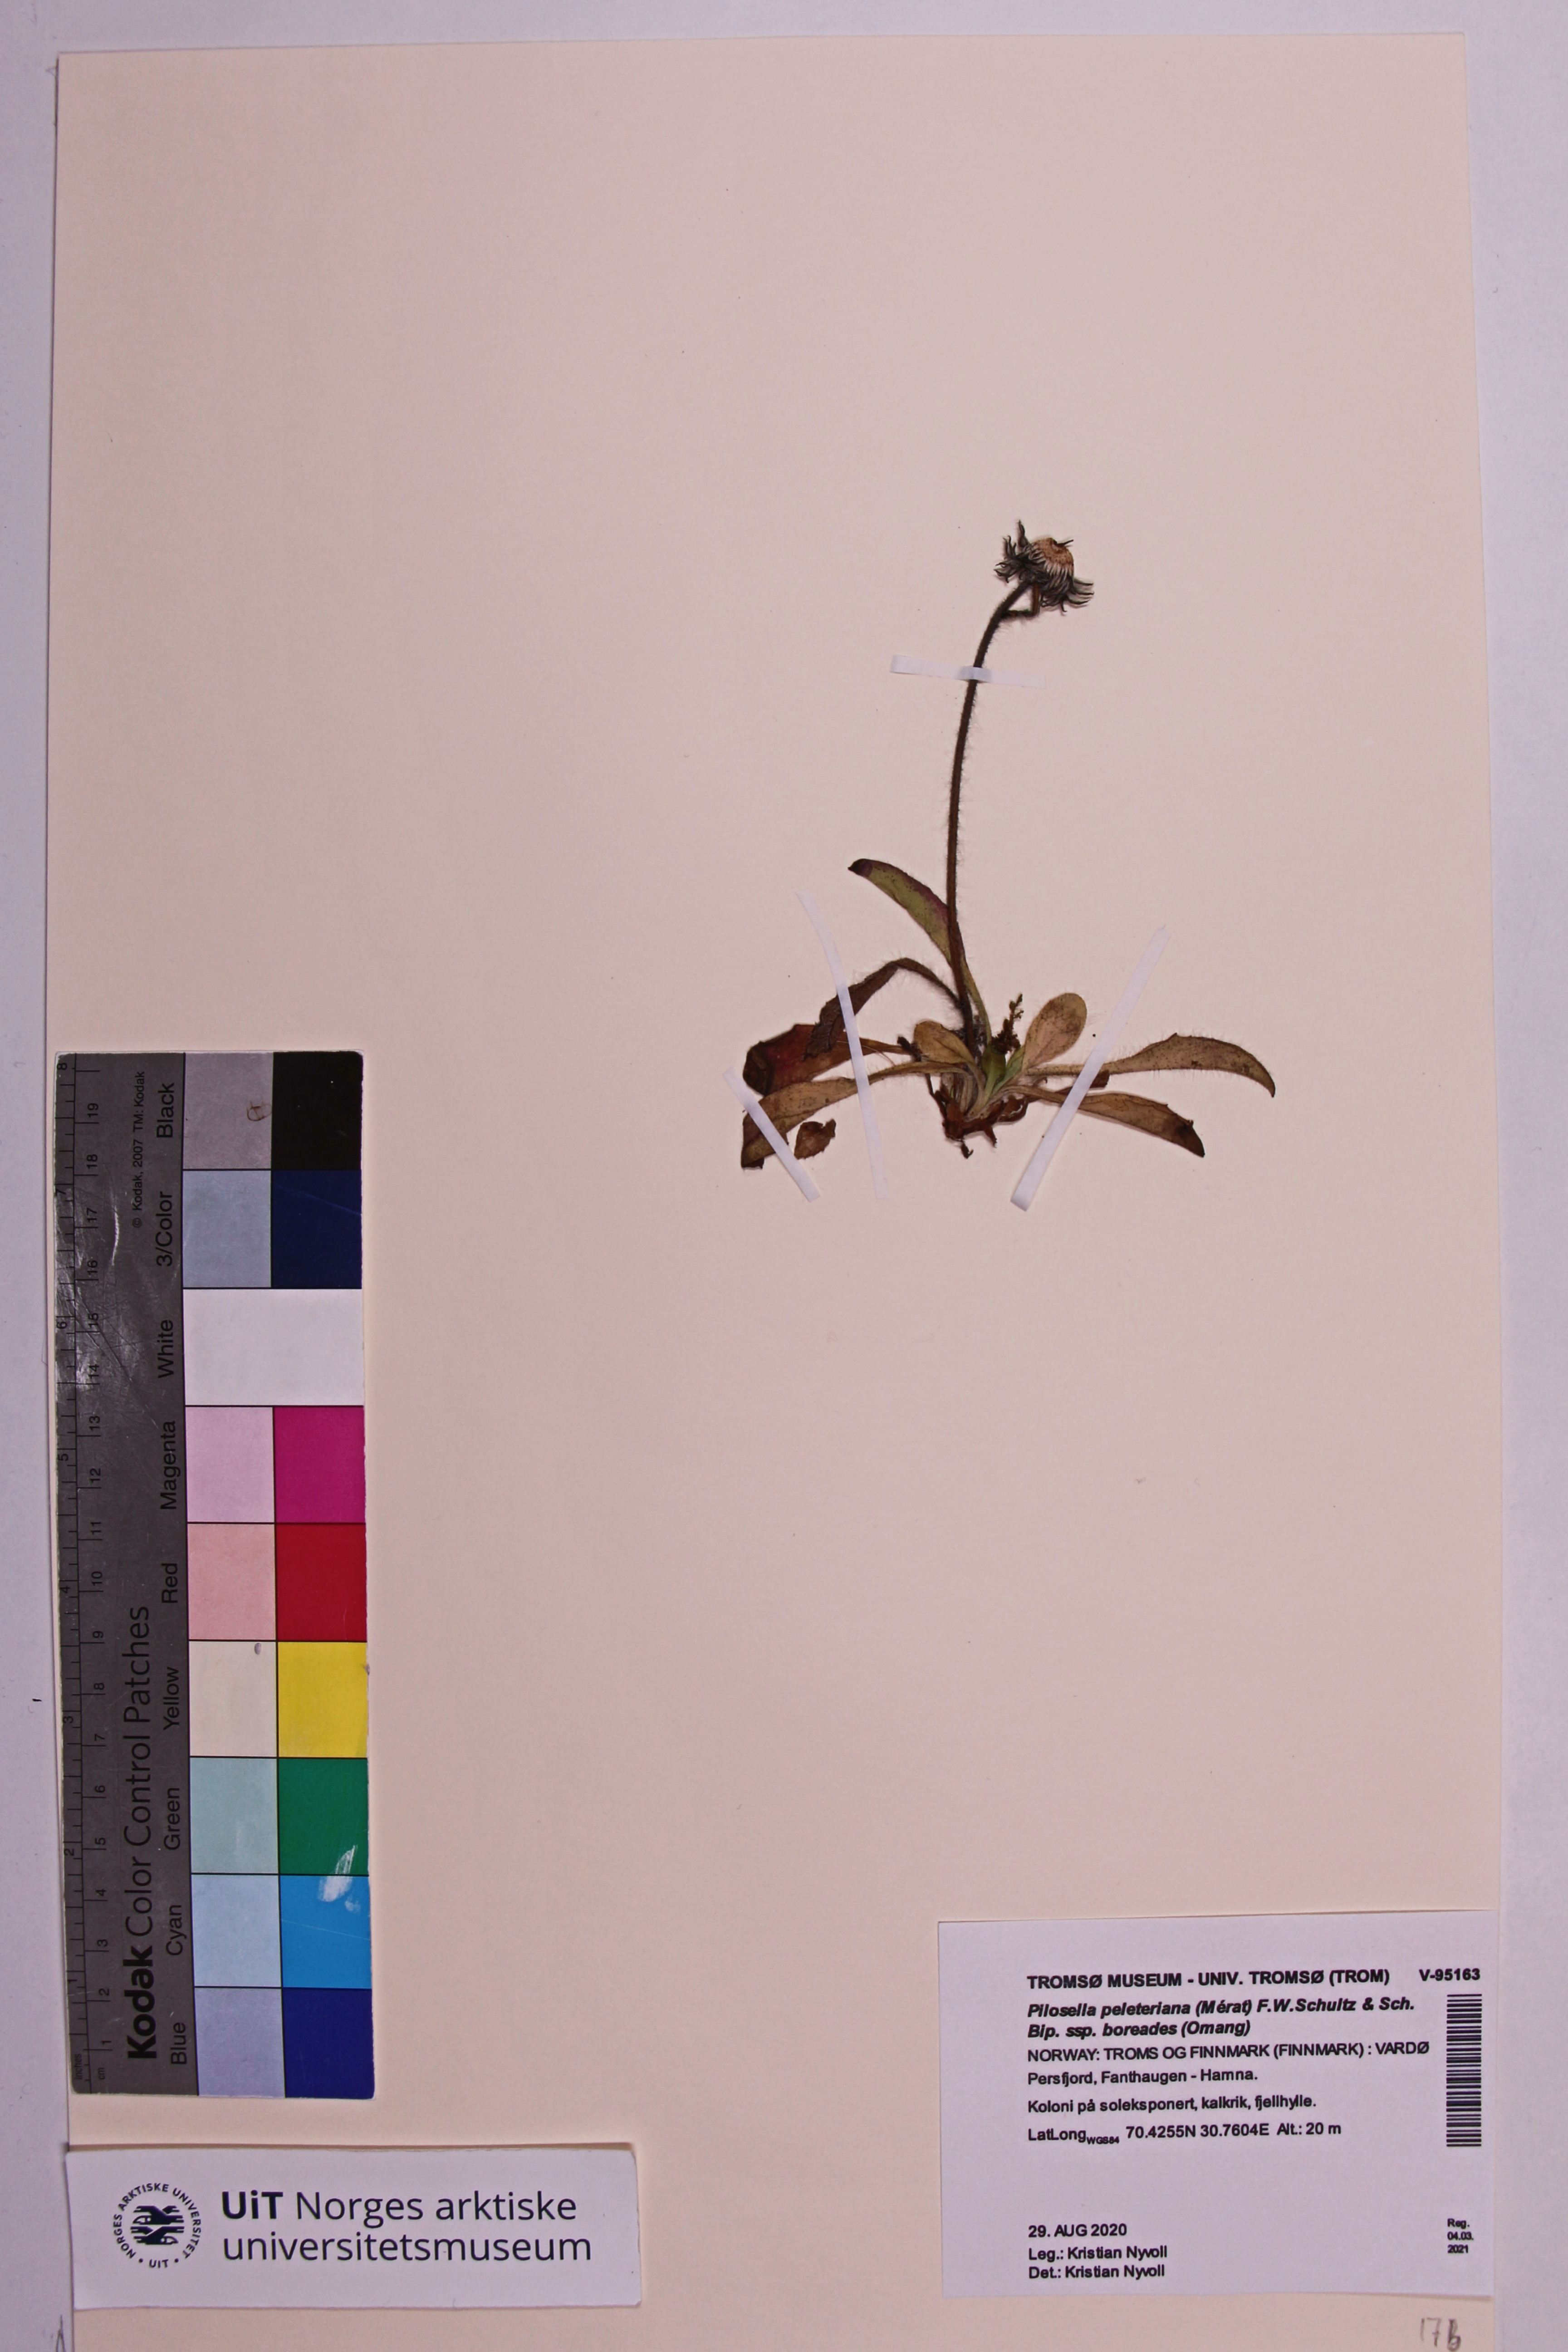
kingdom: Plantae
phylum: Tracheophyta
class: Magnoliopsida
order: Asterales
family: Asteraceae
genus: Pilosella
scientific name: Pilosella peleteriana
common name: Shaggy mouse-ear-hawkweed
